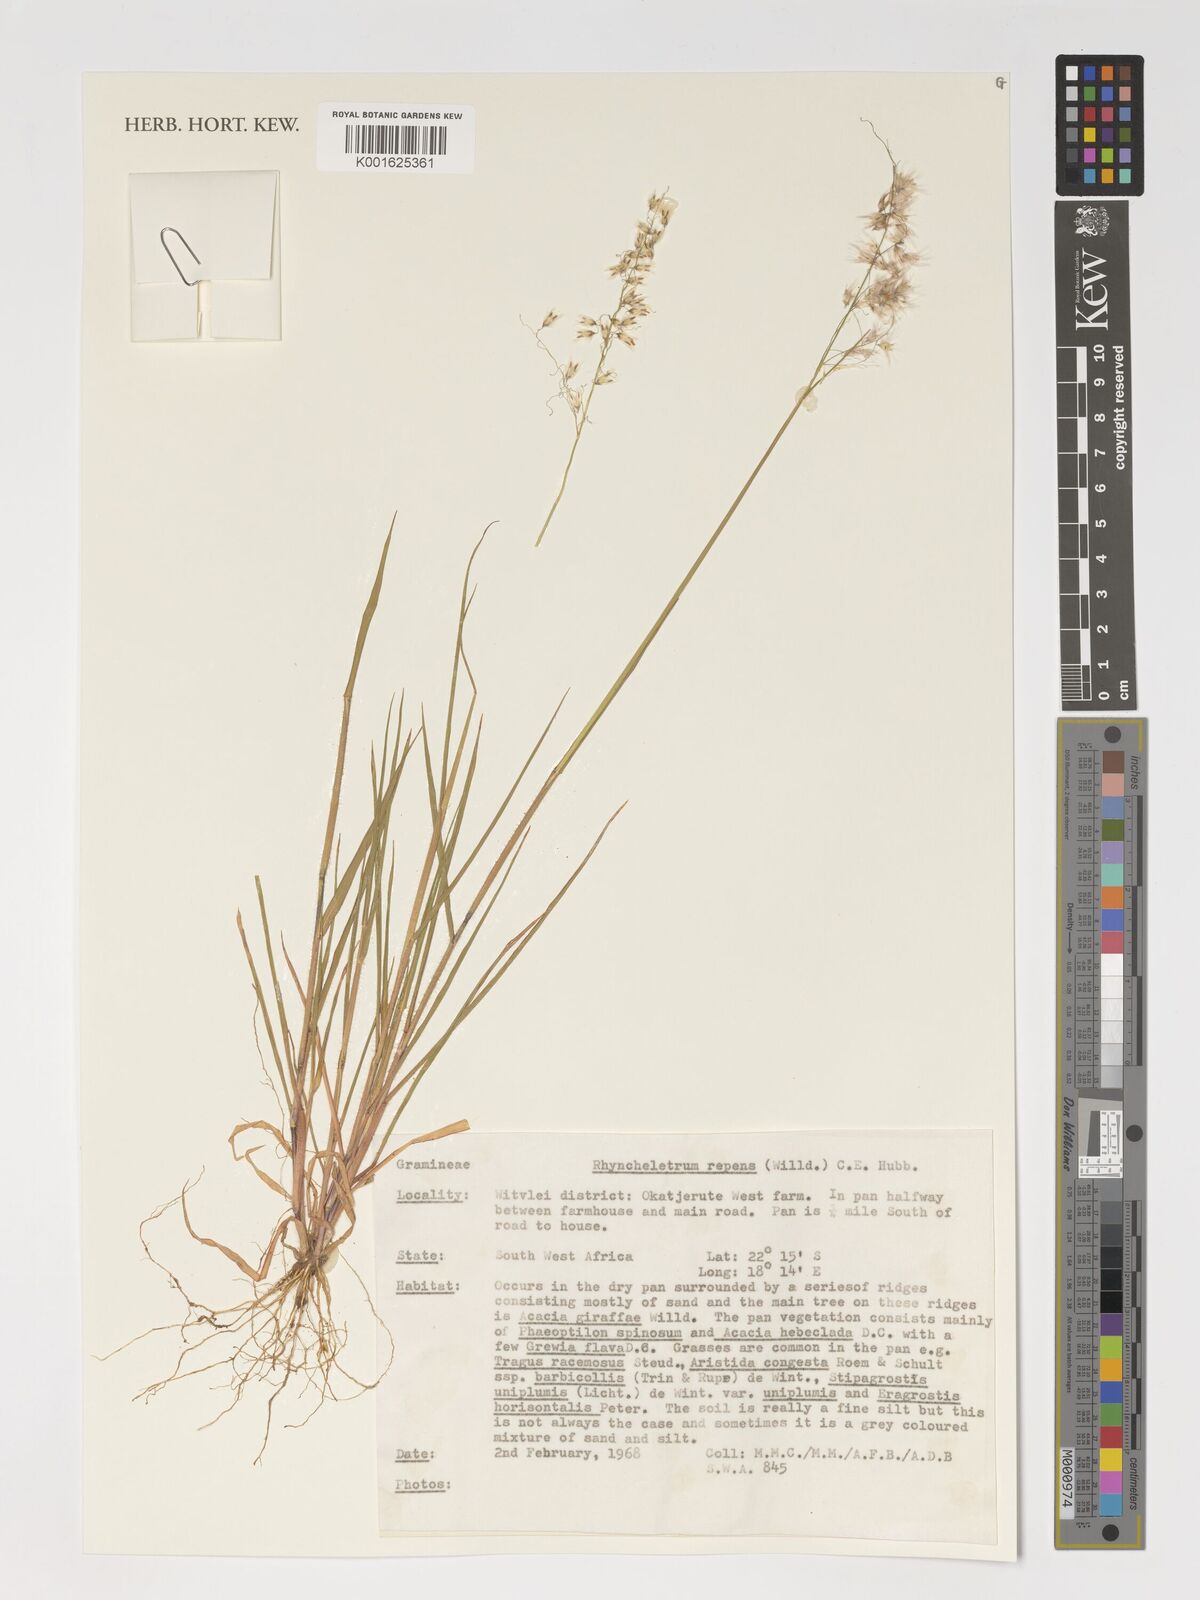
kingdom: Plantae
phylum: Tracheophyta
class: Liliopsida
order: Poales
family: Poaceae
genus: Melinis
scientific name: Melinis repens
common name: Rose natal grass
